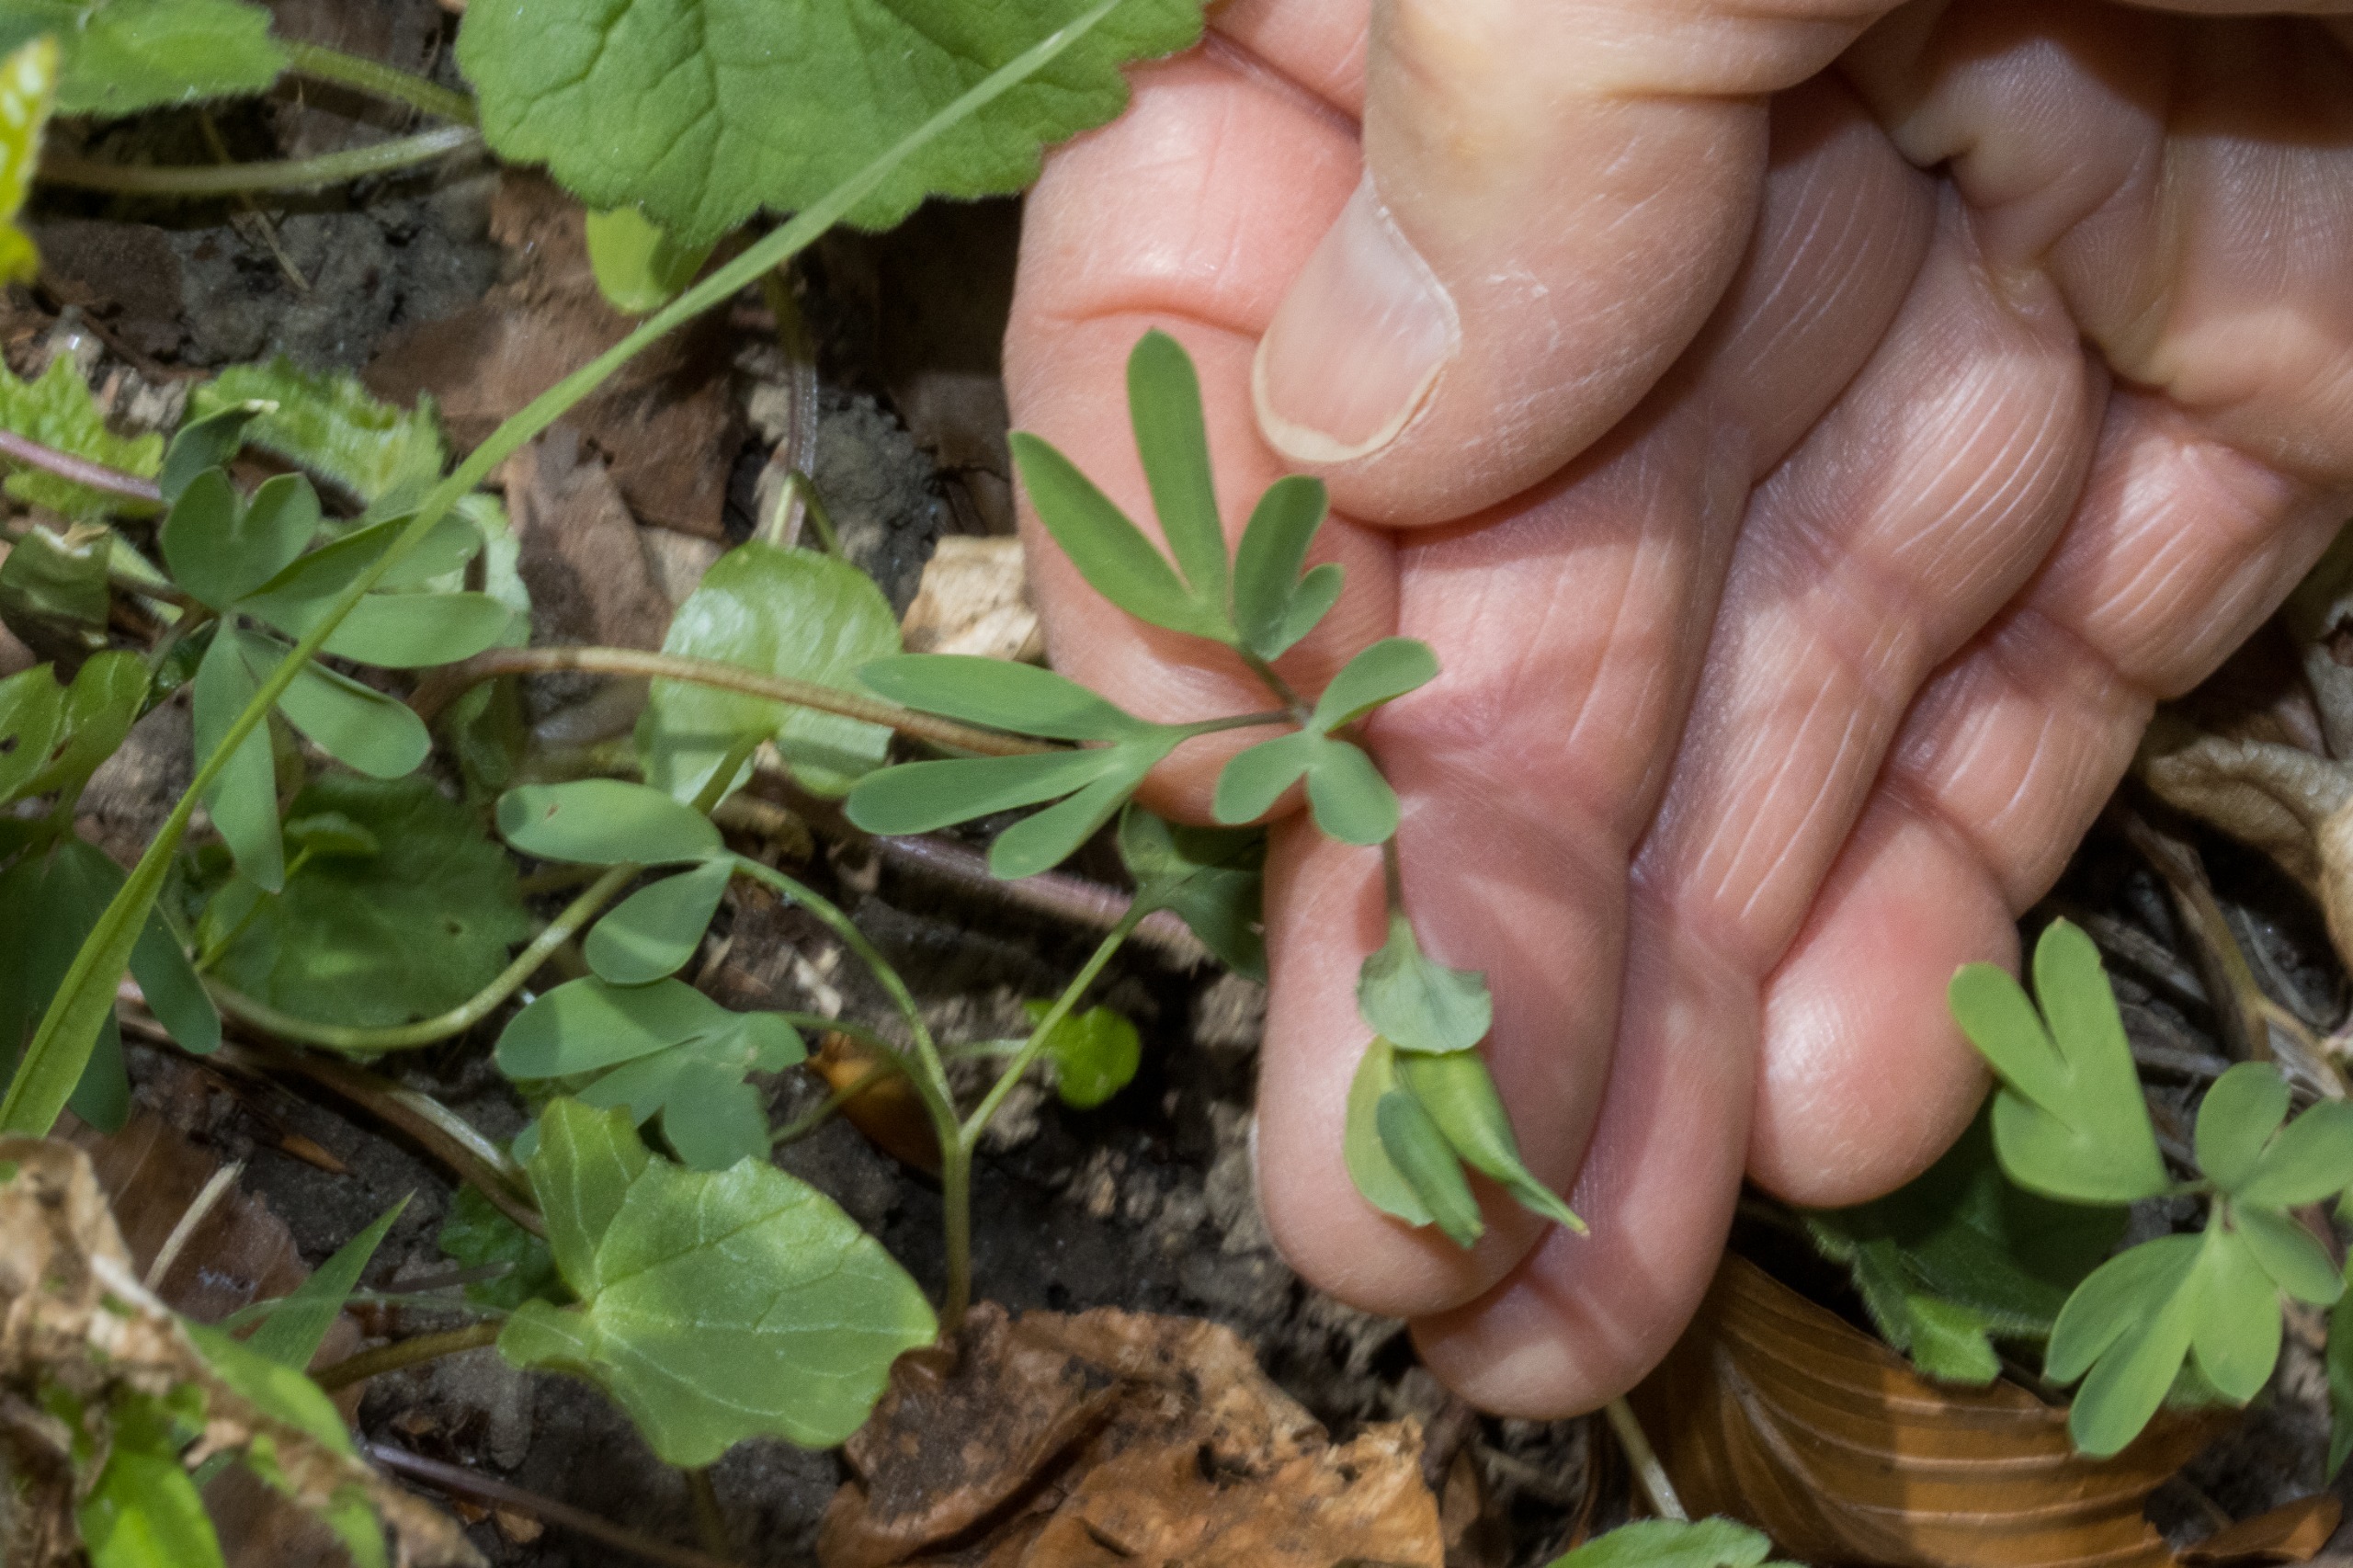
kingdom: Plantae
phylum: Tracheophyta
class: Magnoliopsida
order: Ranunculales
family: Papaveraceae
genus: Corydalis
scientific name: Corydalis intermedia
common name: Liden lærkespore
